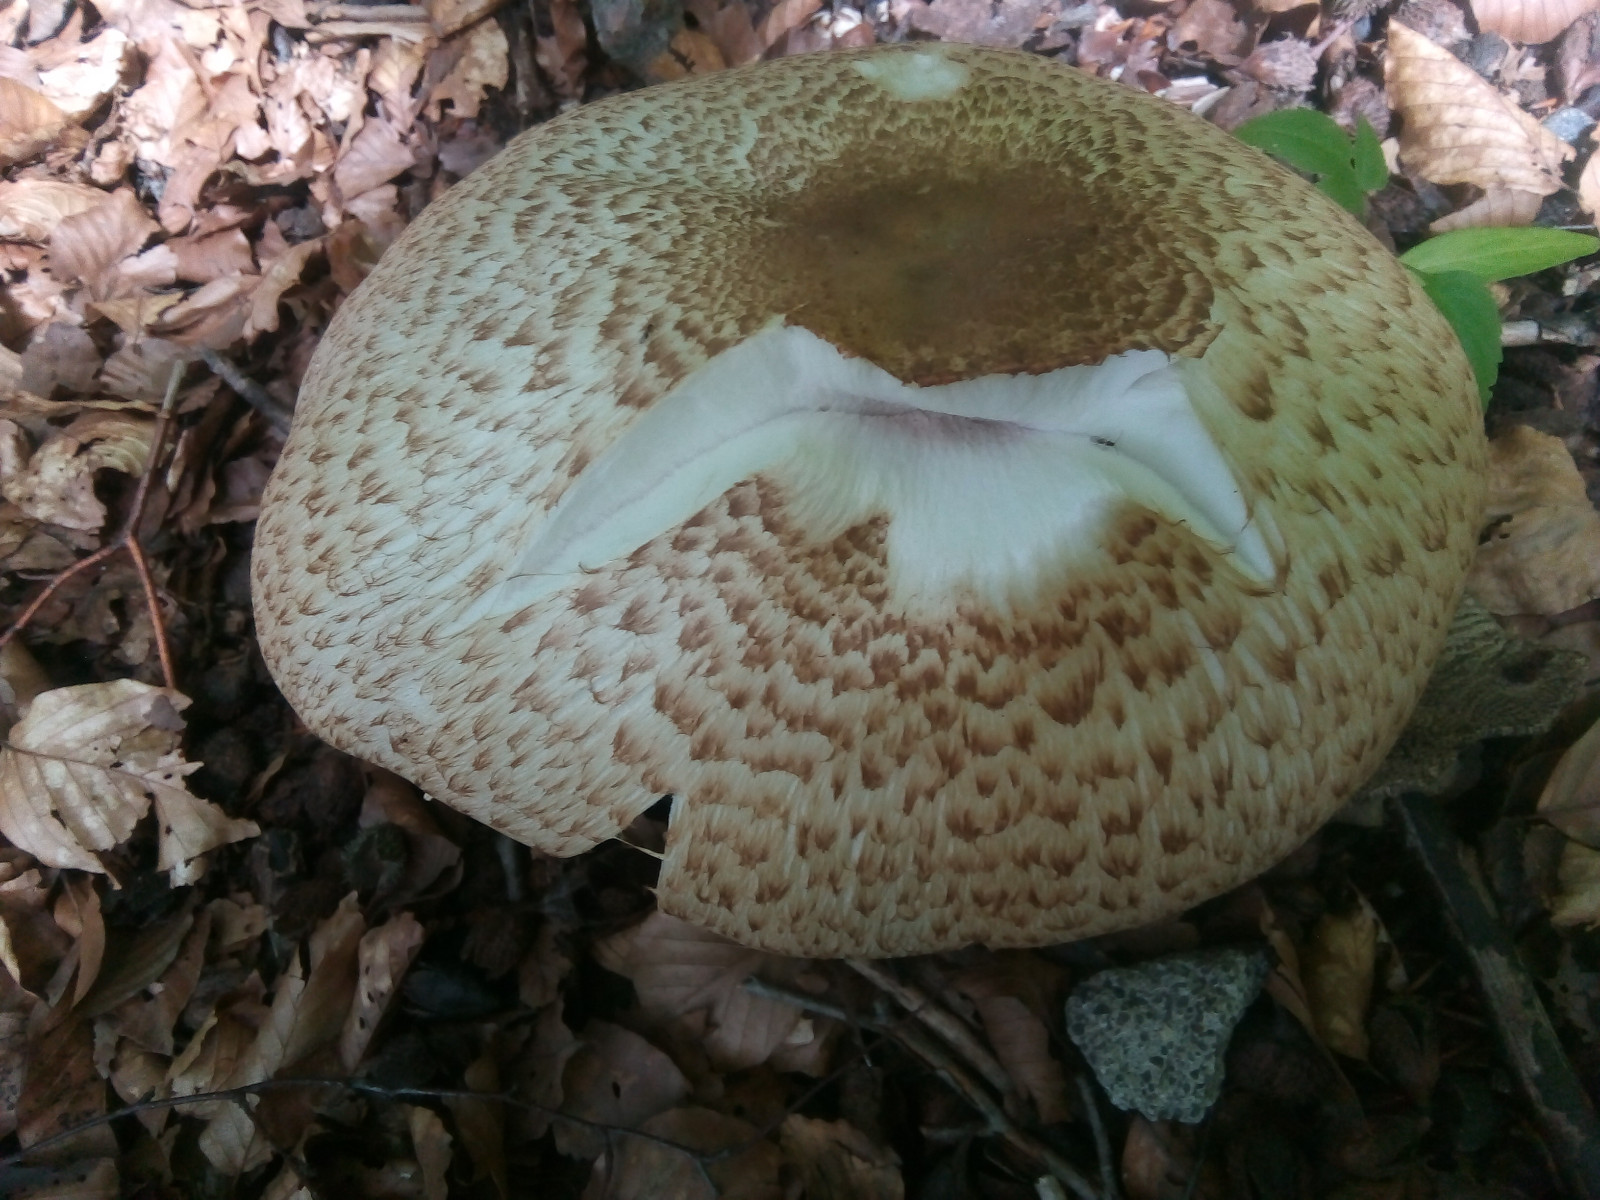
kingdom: Fungi
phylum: Basidiomycota
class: Agaricomycetes
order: Agaricales
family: Agaricaceae
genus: Agaricus
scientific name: Agaricus augustus
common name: prægtig champignon
